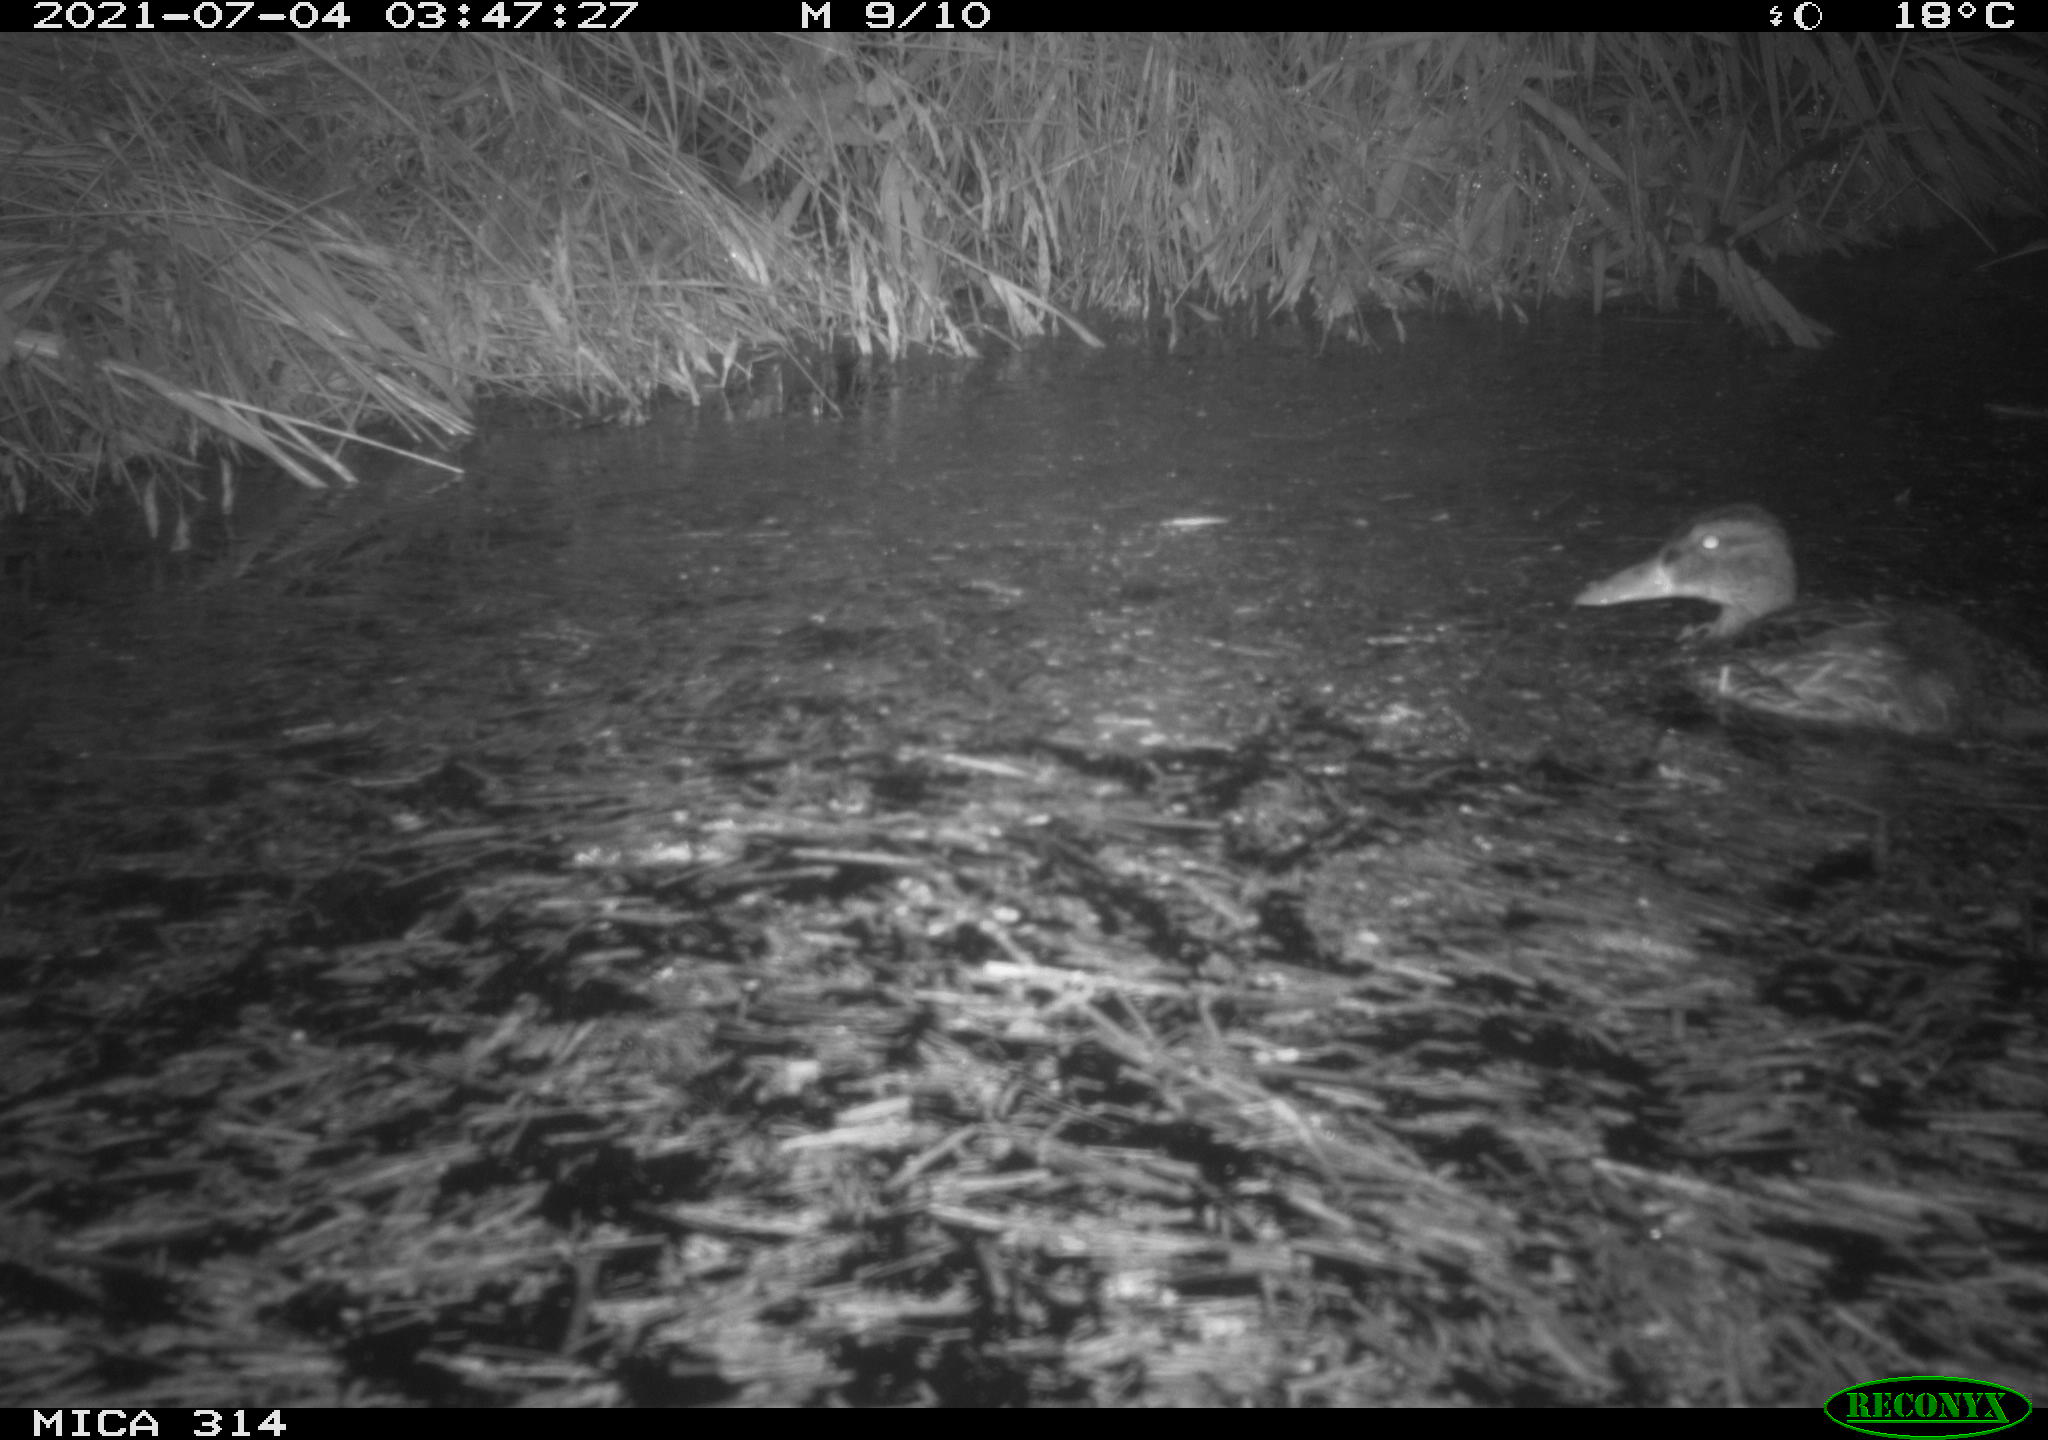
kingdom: Animalia
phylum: Chordata
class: Aves
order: Anseriformes
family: Anatidae
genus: Mareca
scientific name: Mareca strepera
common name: Gadwall
